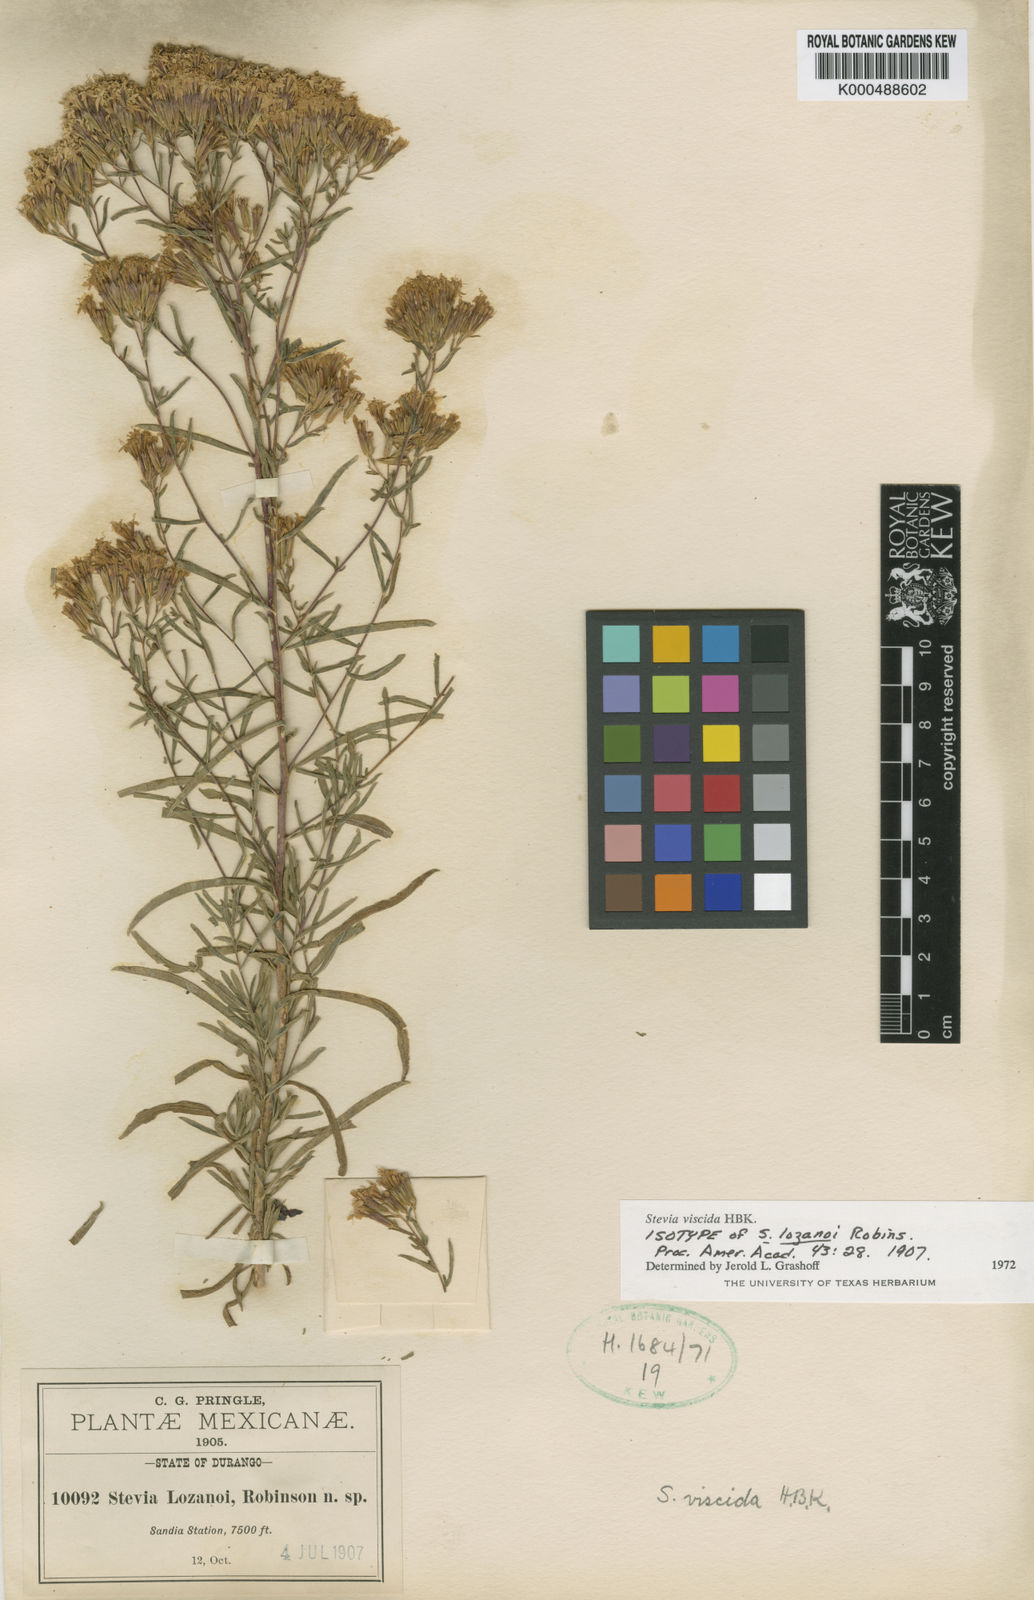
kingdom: Plantae
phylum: Tracheophyta
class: Magnoliopsida
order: Asterales
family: Asteraceae
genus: Stevia
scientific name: Stevia viscida
